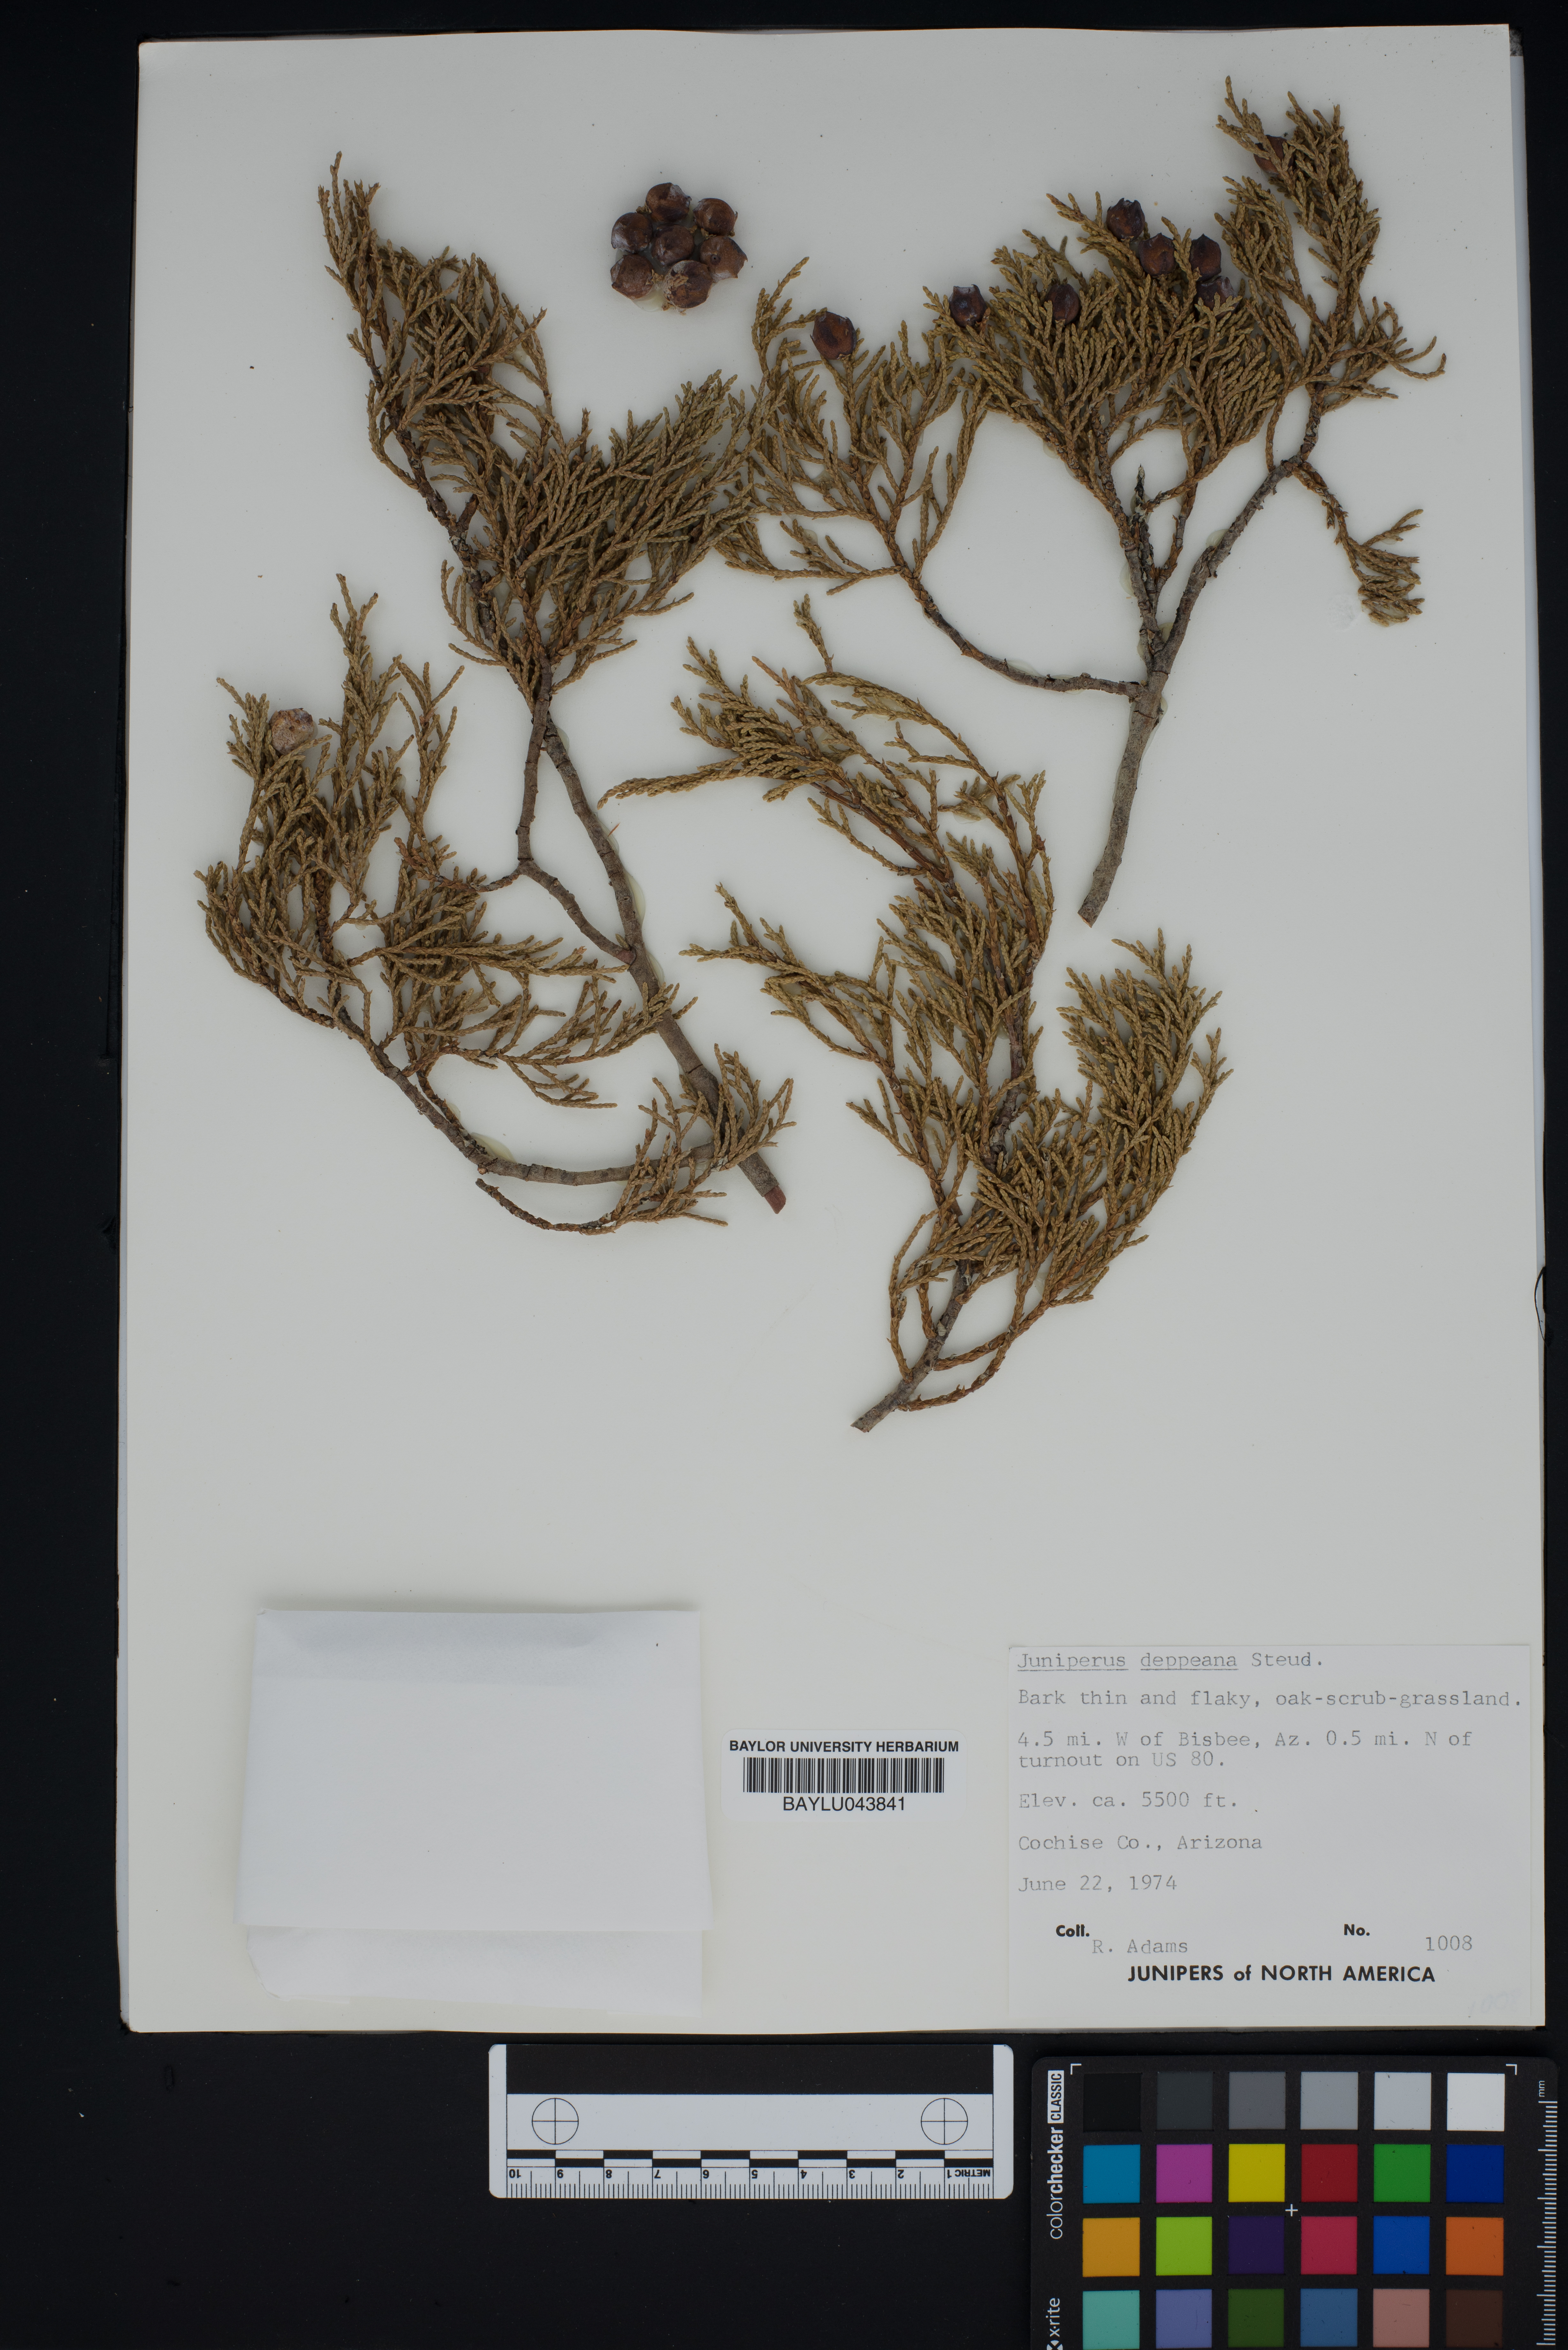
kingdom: Plantae
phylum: Tracheophyta
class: Pinopsida
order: Pinales
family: Cupressaceae
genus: Juniperus
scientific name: Juniperus deppeana
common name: Alligator juniper
